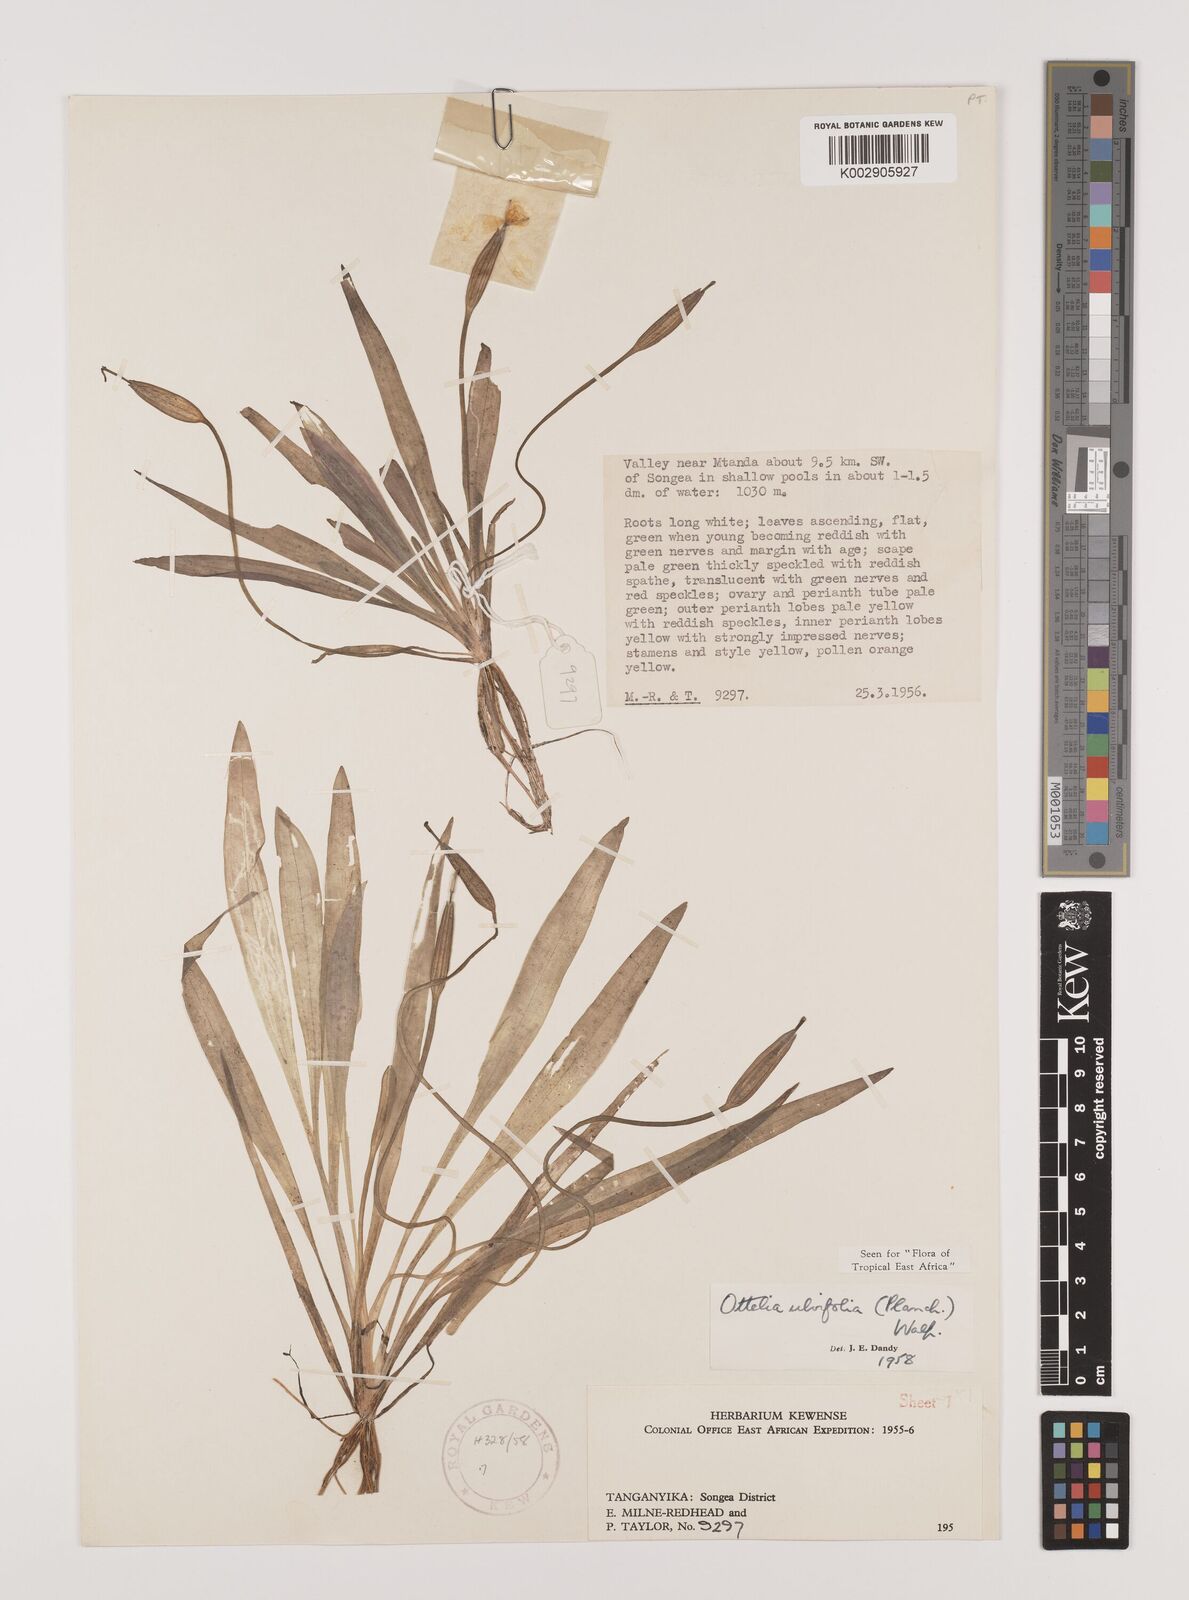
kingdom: Plantae
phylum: Tracheophyta
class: Liliopsida
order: Alismatales
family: Hydrocharitaceae
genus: Ottelia
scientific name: Ottelia ulvifolia
